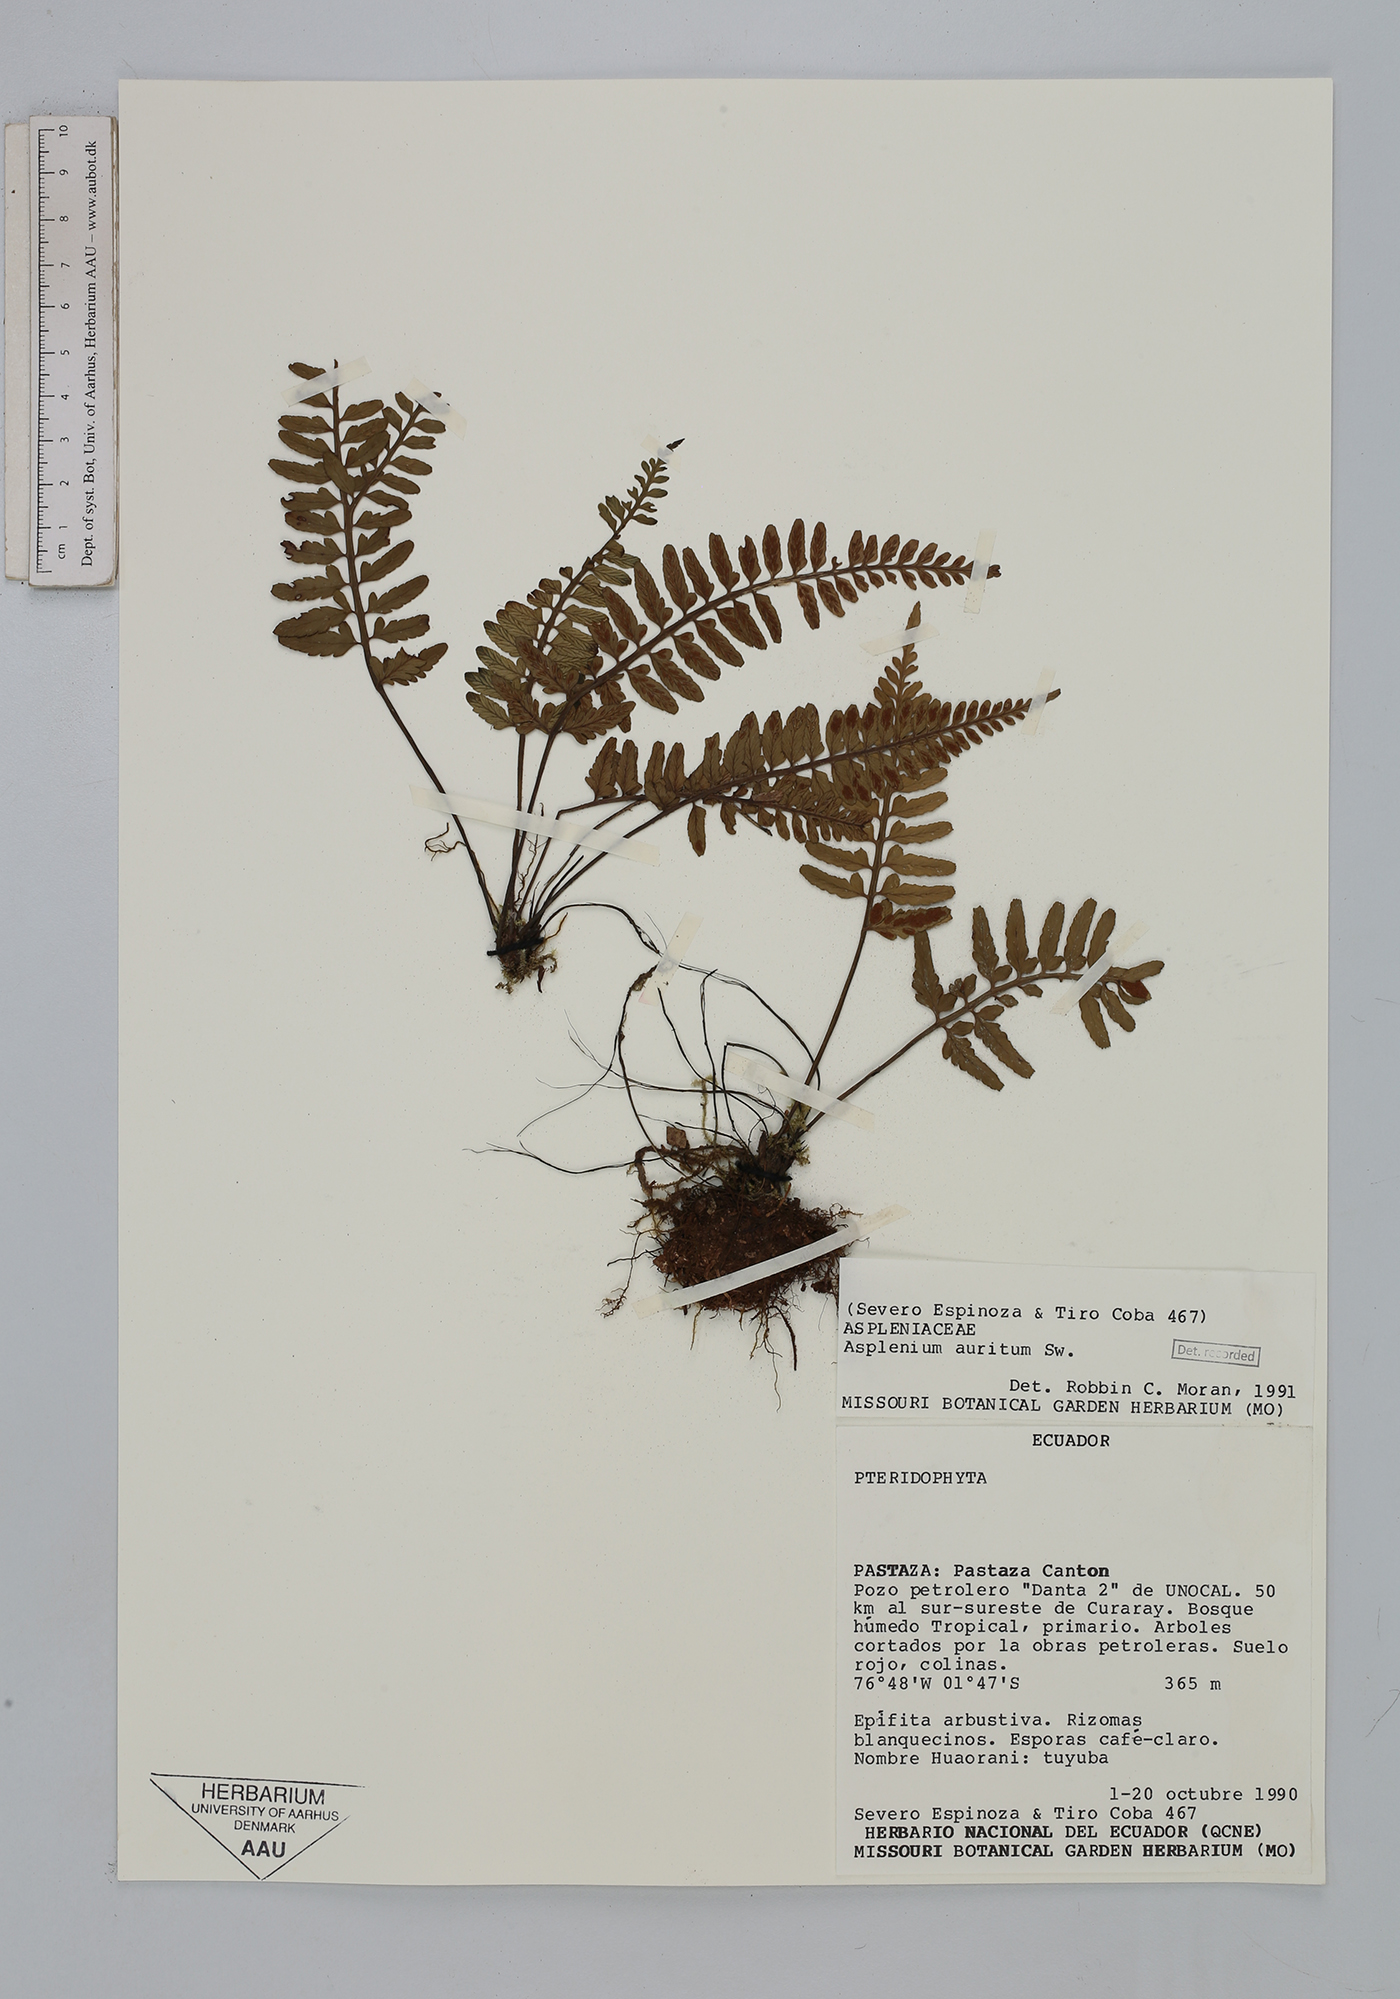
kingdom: Plantae
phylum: Tracheophyta
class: Polypodiopsida
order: Polypodiales
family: Aspleniaceae
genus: Asplenium
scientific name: Asplenium auritum
